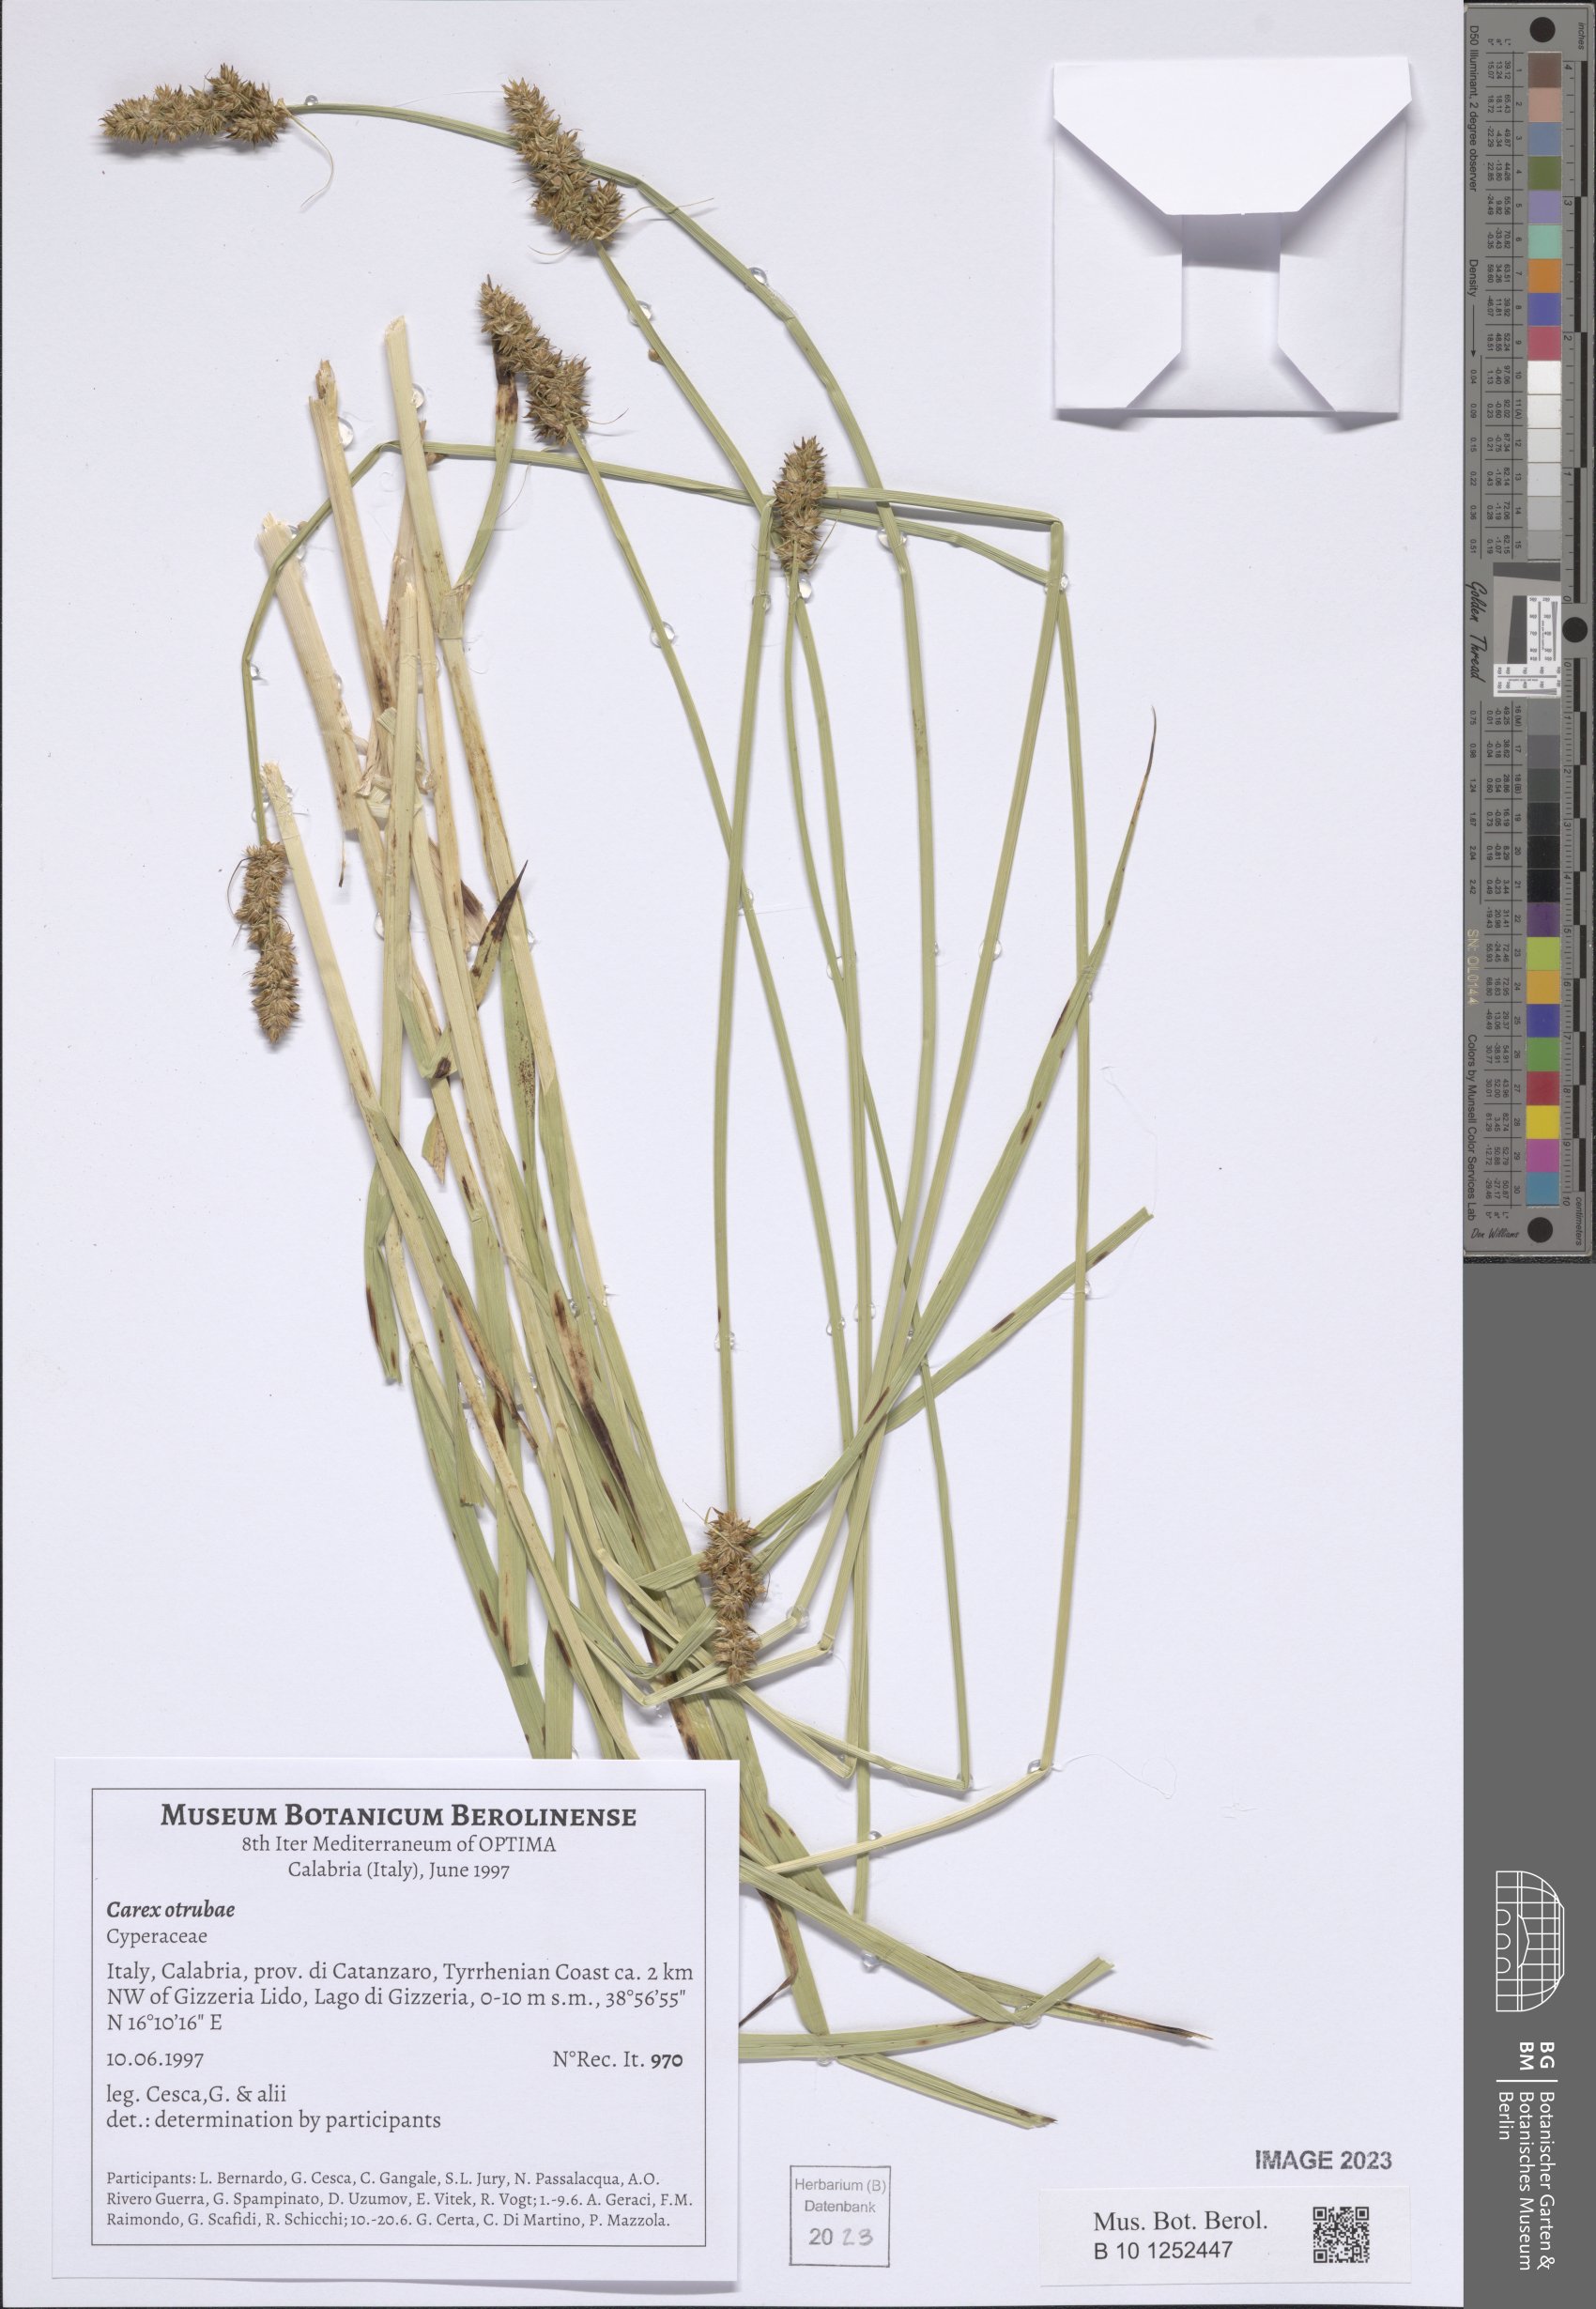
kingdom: Plantae
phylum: Tracheophyta
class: Liliopsida
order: Poales
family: Cyperaceae
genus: Carex
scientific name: Carex otrubae
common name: False fox-sedge
